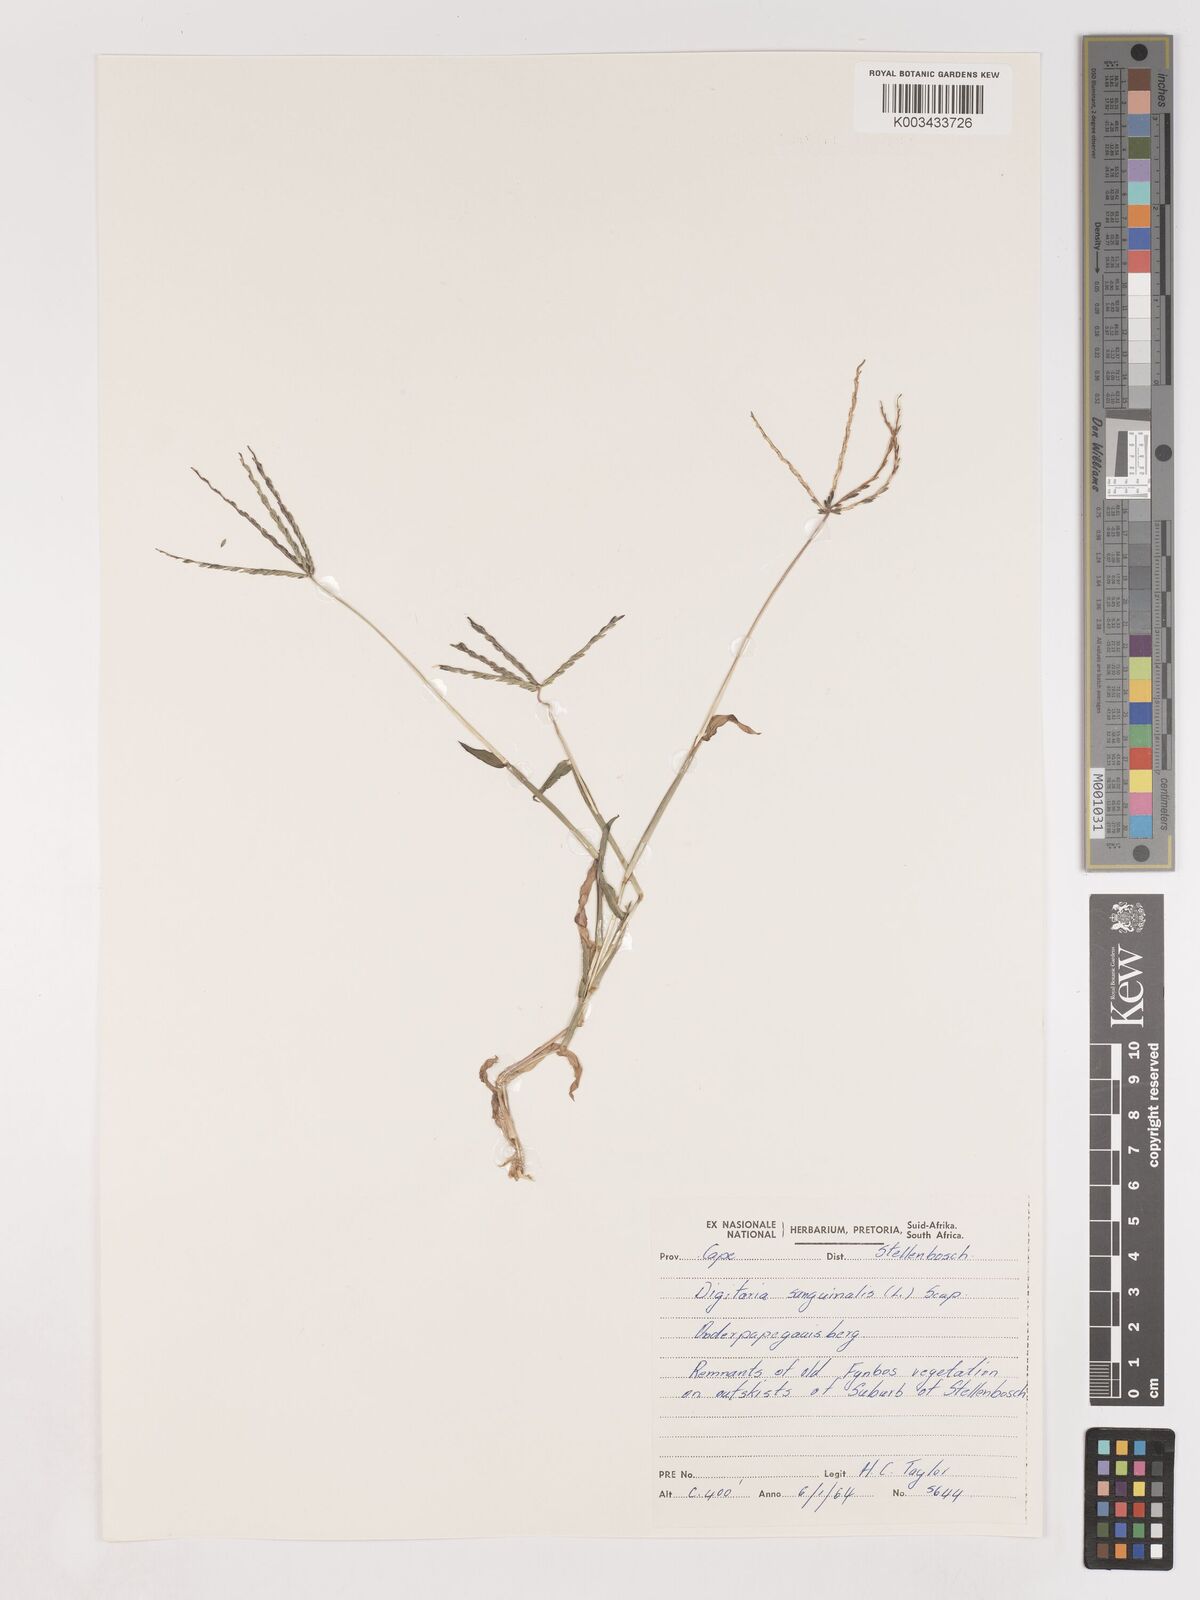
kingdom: Plantae
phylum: Tracheophyta
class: Liliopsida
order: Poales
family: Poaceae
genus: Digitaria
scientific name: Digitaria sanguinalis
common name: Hairy crabgrass
